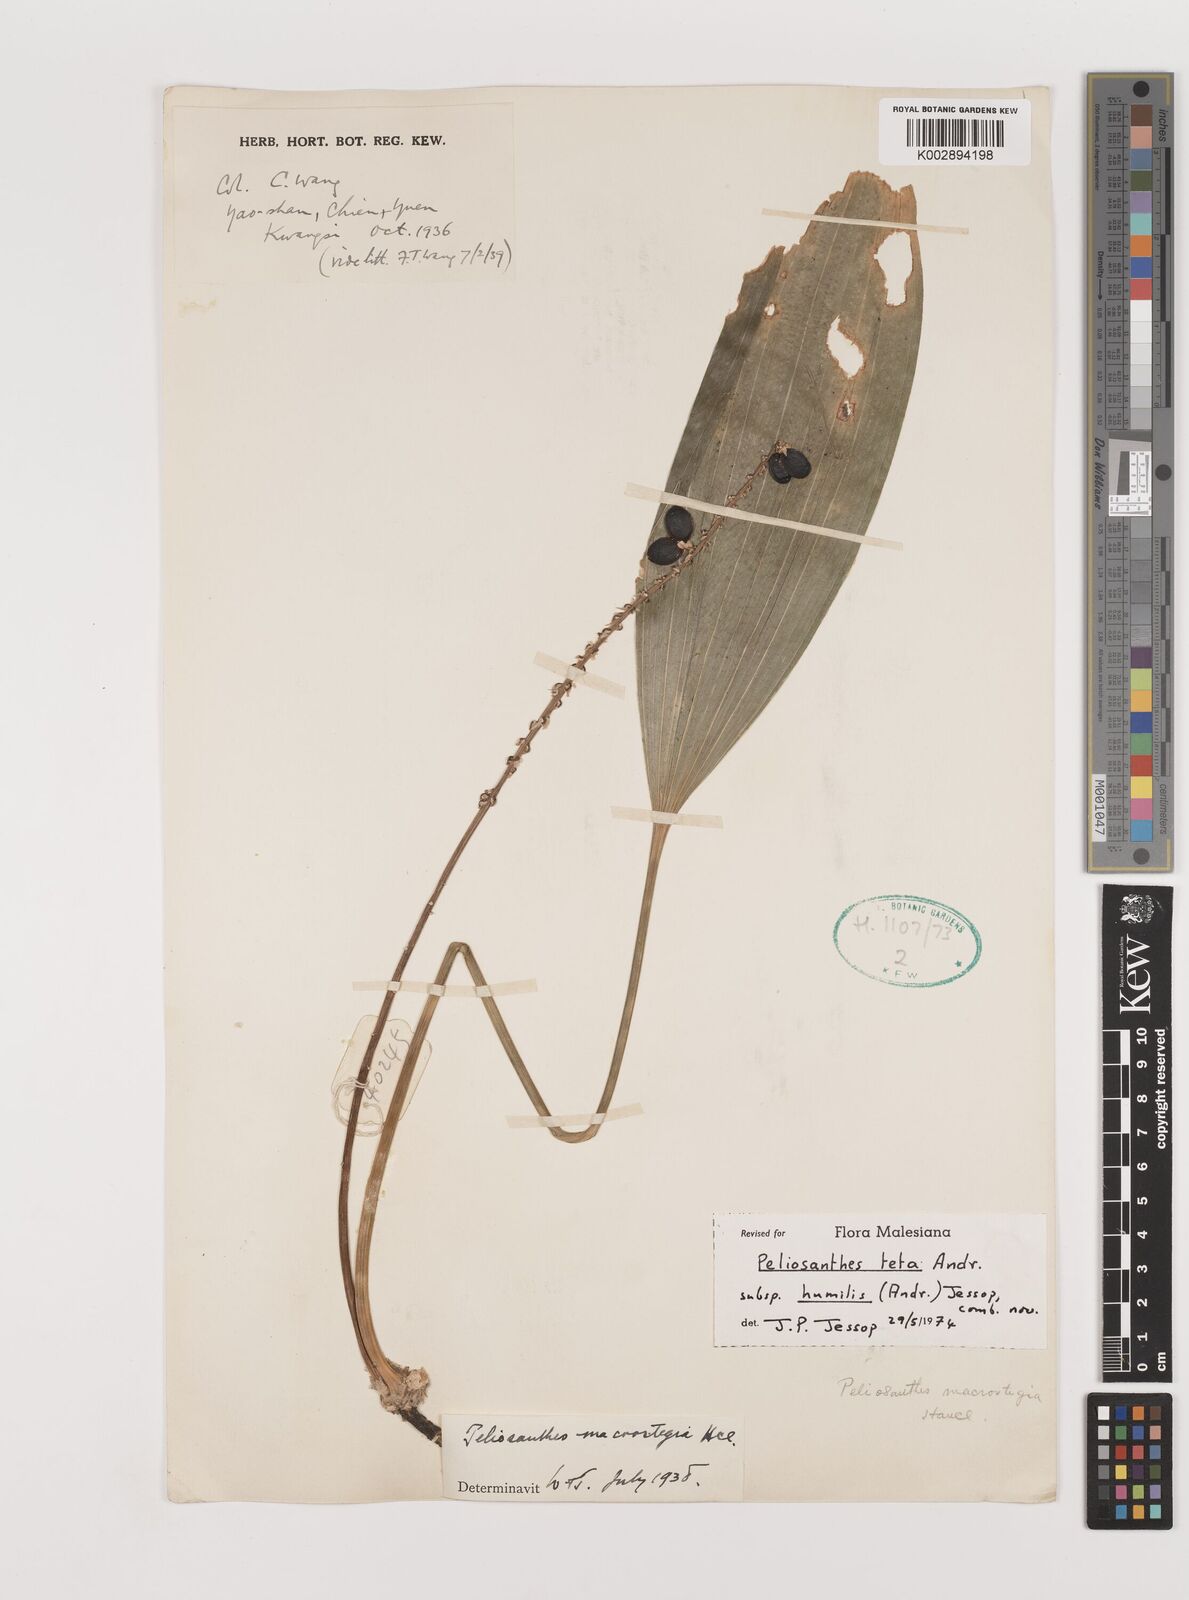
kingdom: Plantae
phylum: Tracheophyta
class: Liliopsida
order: Asparagales
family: Asparagaceae
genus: Peliosanthes
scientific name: Peliosanthes teta
